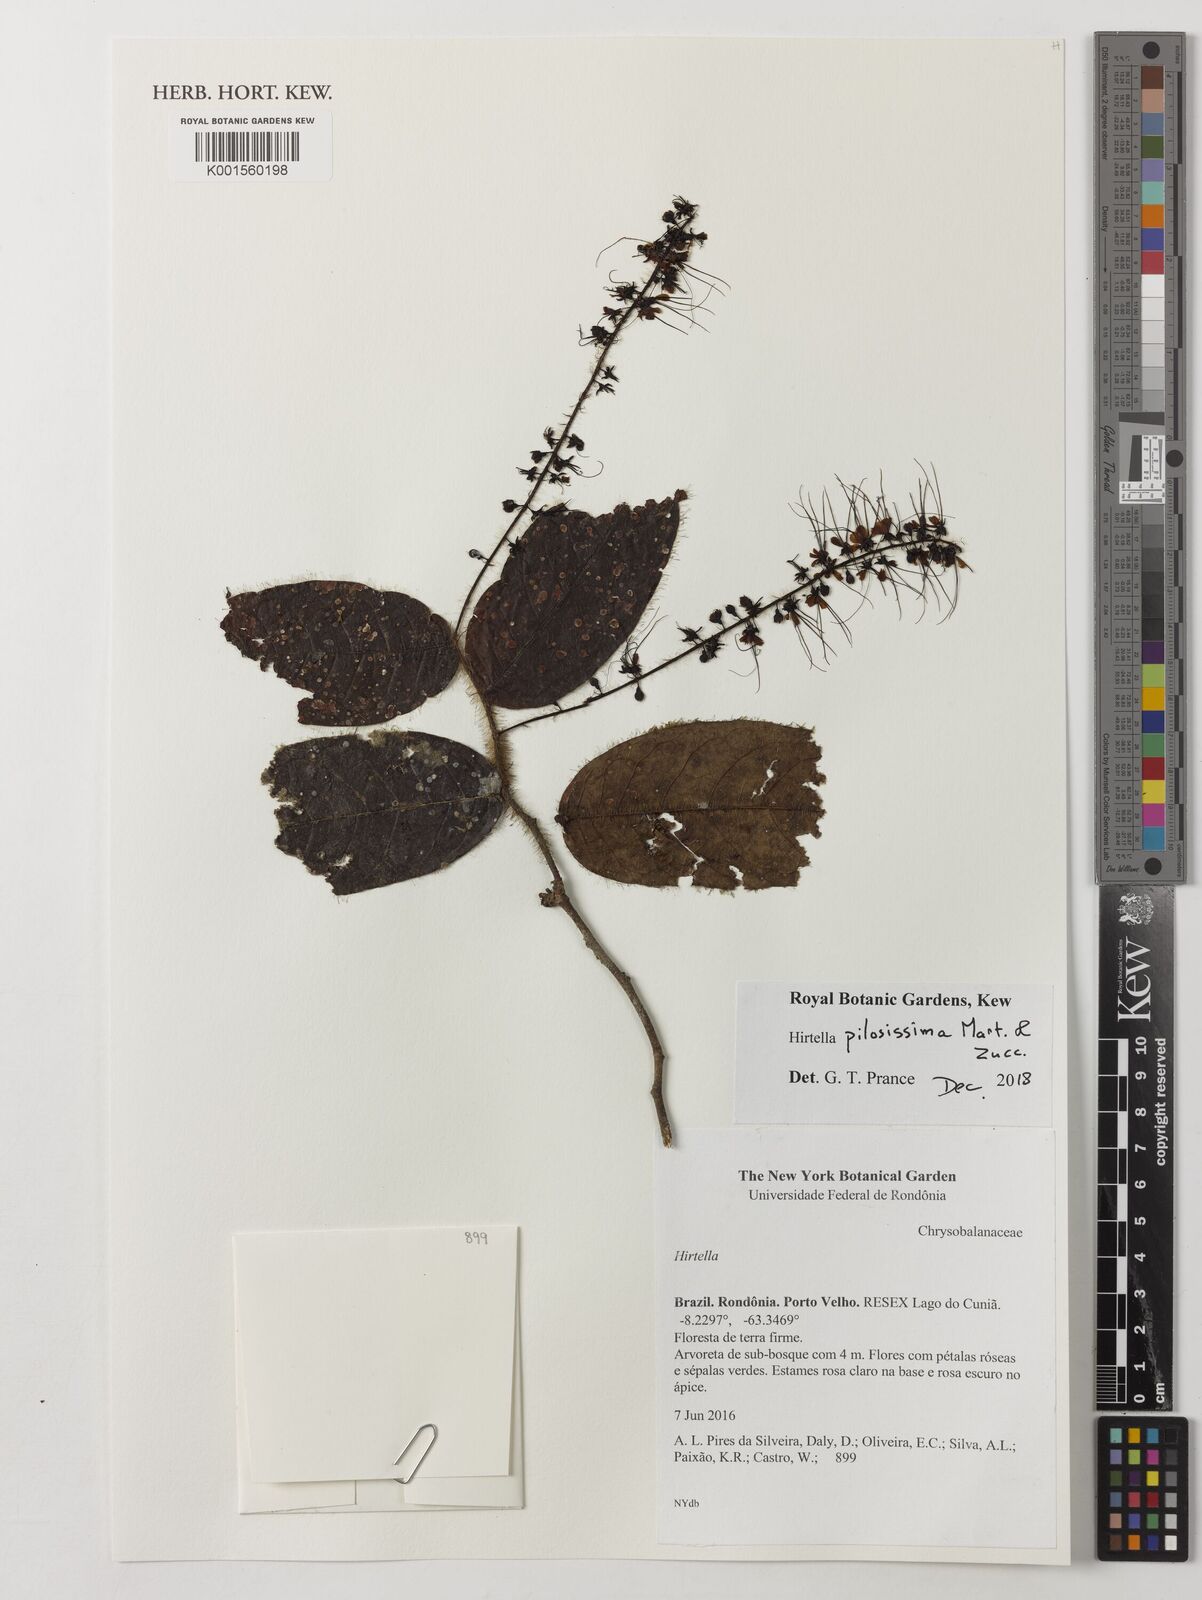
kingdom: Plantae
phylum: Tracheophyta
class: Magnoliopsida
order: Malpighiales
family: Chrysobalanaceae
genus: Hirtella
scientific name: Hirtella pilosissima
